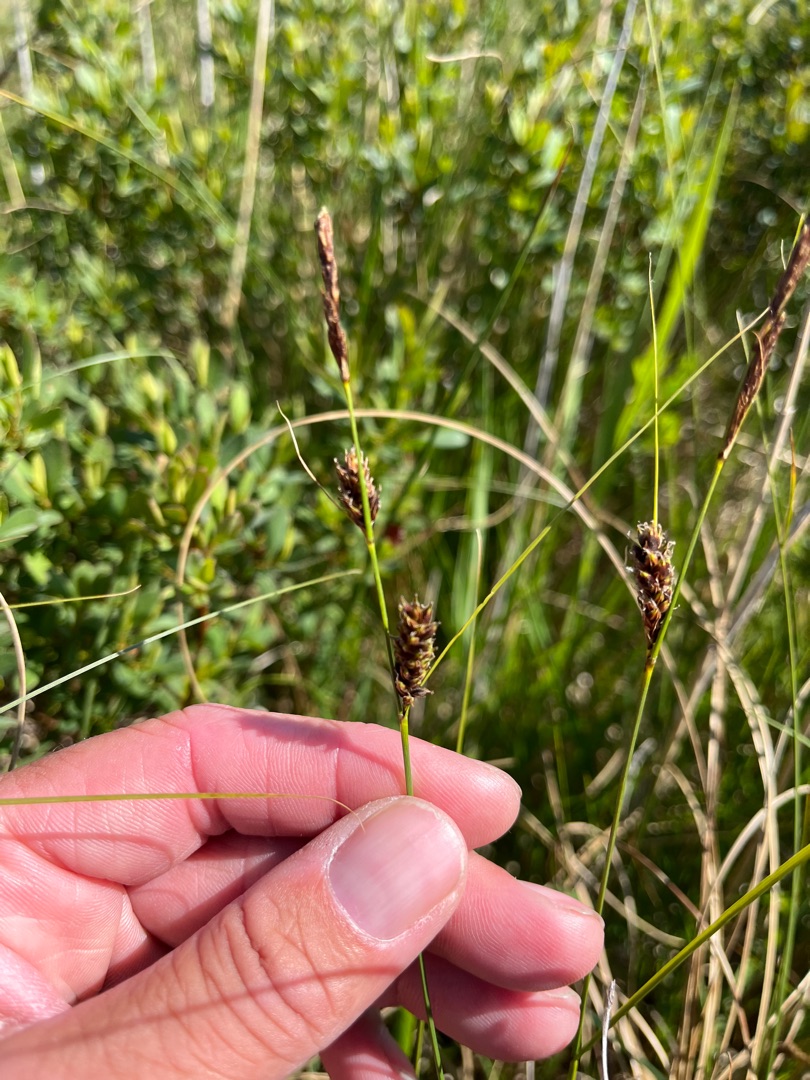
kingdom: Plantae
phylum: Tracheophyta
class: Liliopsida
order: Poales
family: Cyperaceae
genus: Carex
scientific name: Carex lasiocarpa
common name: Tråd-star
